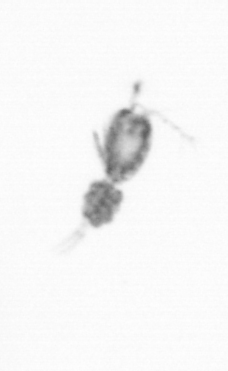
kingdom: Animalia
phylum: Arthropoda
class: Copepoda
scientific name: Copepoda
